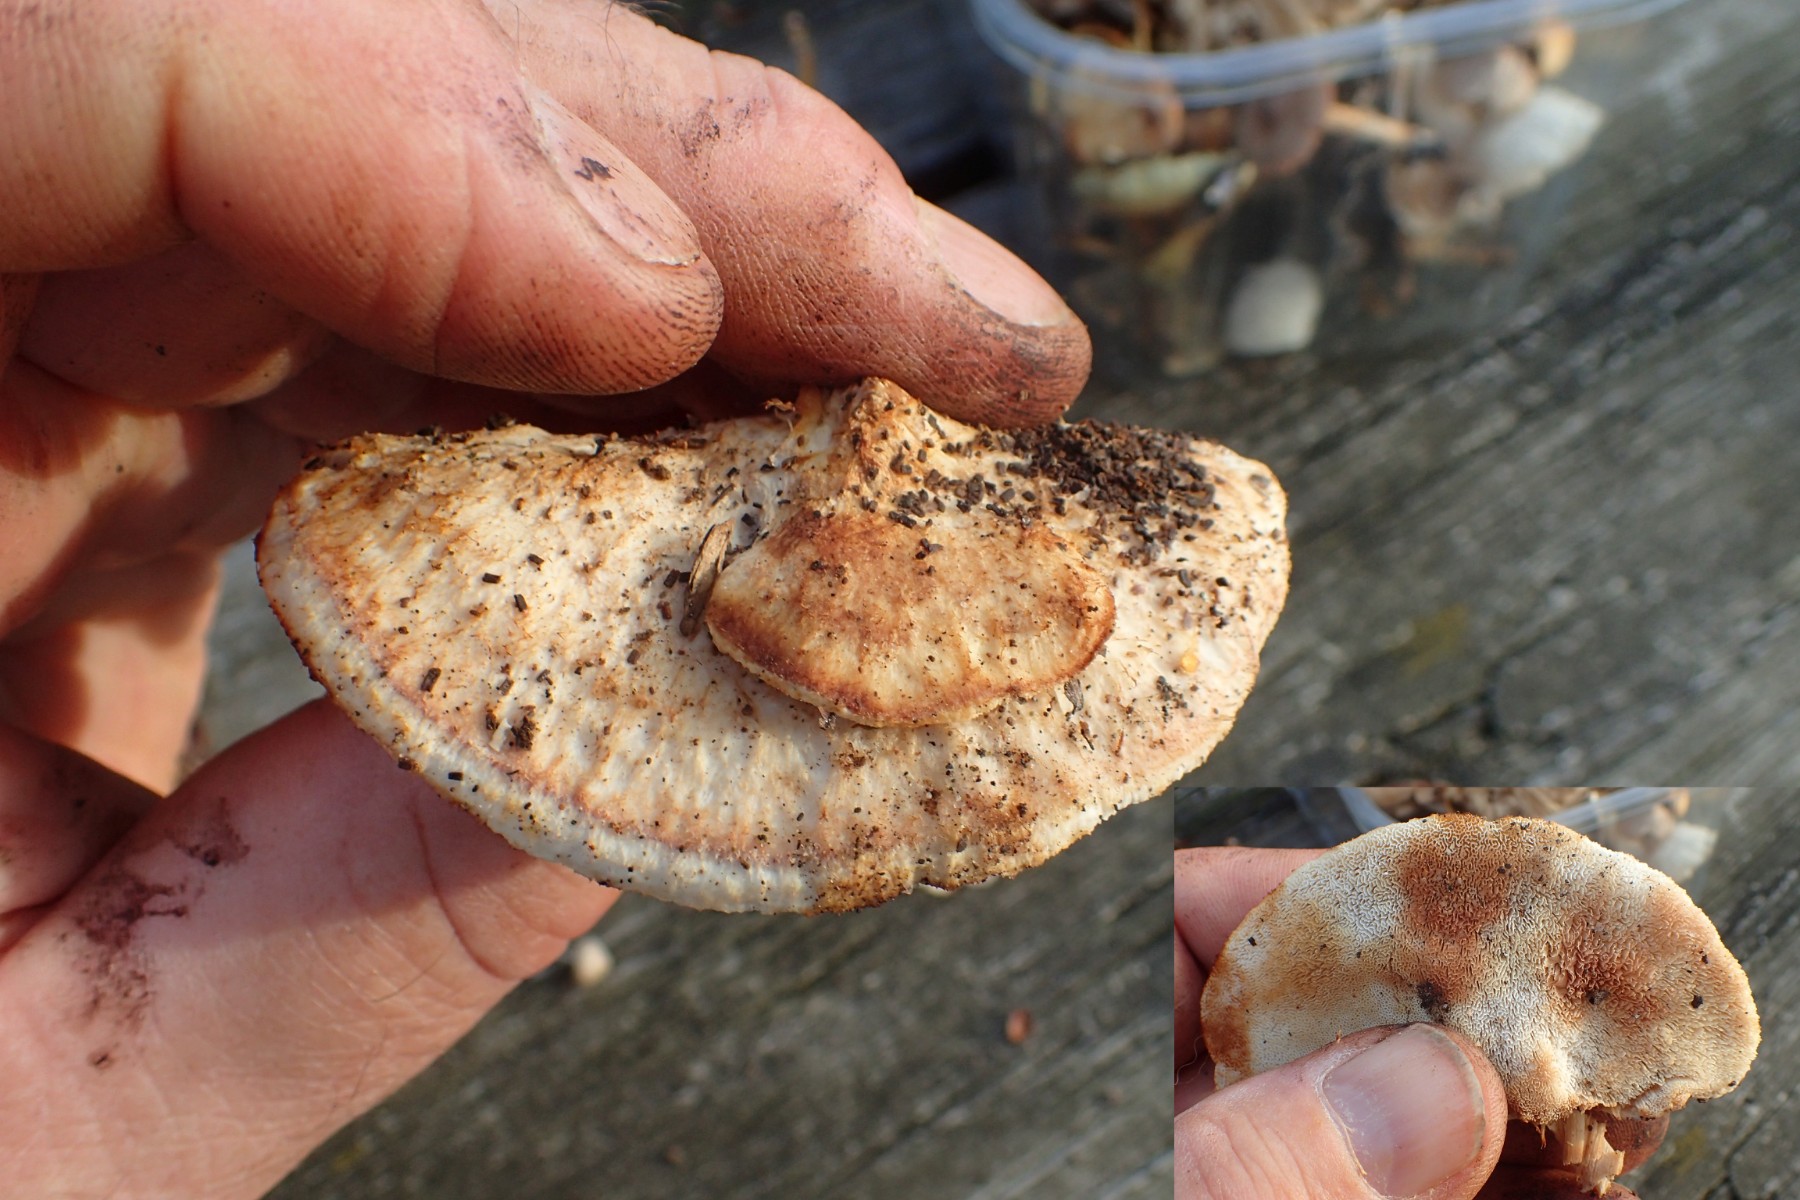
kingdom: Fungi
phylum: Basidiomycota
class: Agaricomycetes
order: Polyporales
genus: Fuscopostia
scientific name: Fuscopostia fragilis
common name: brunende kødporesvamp
